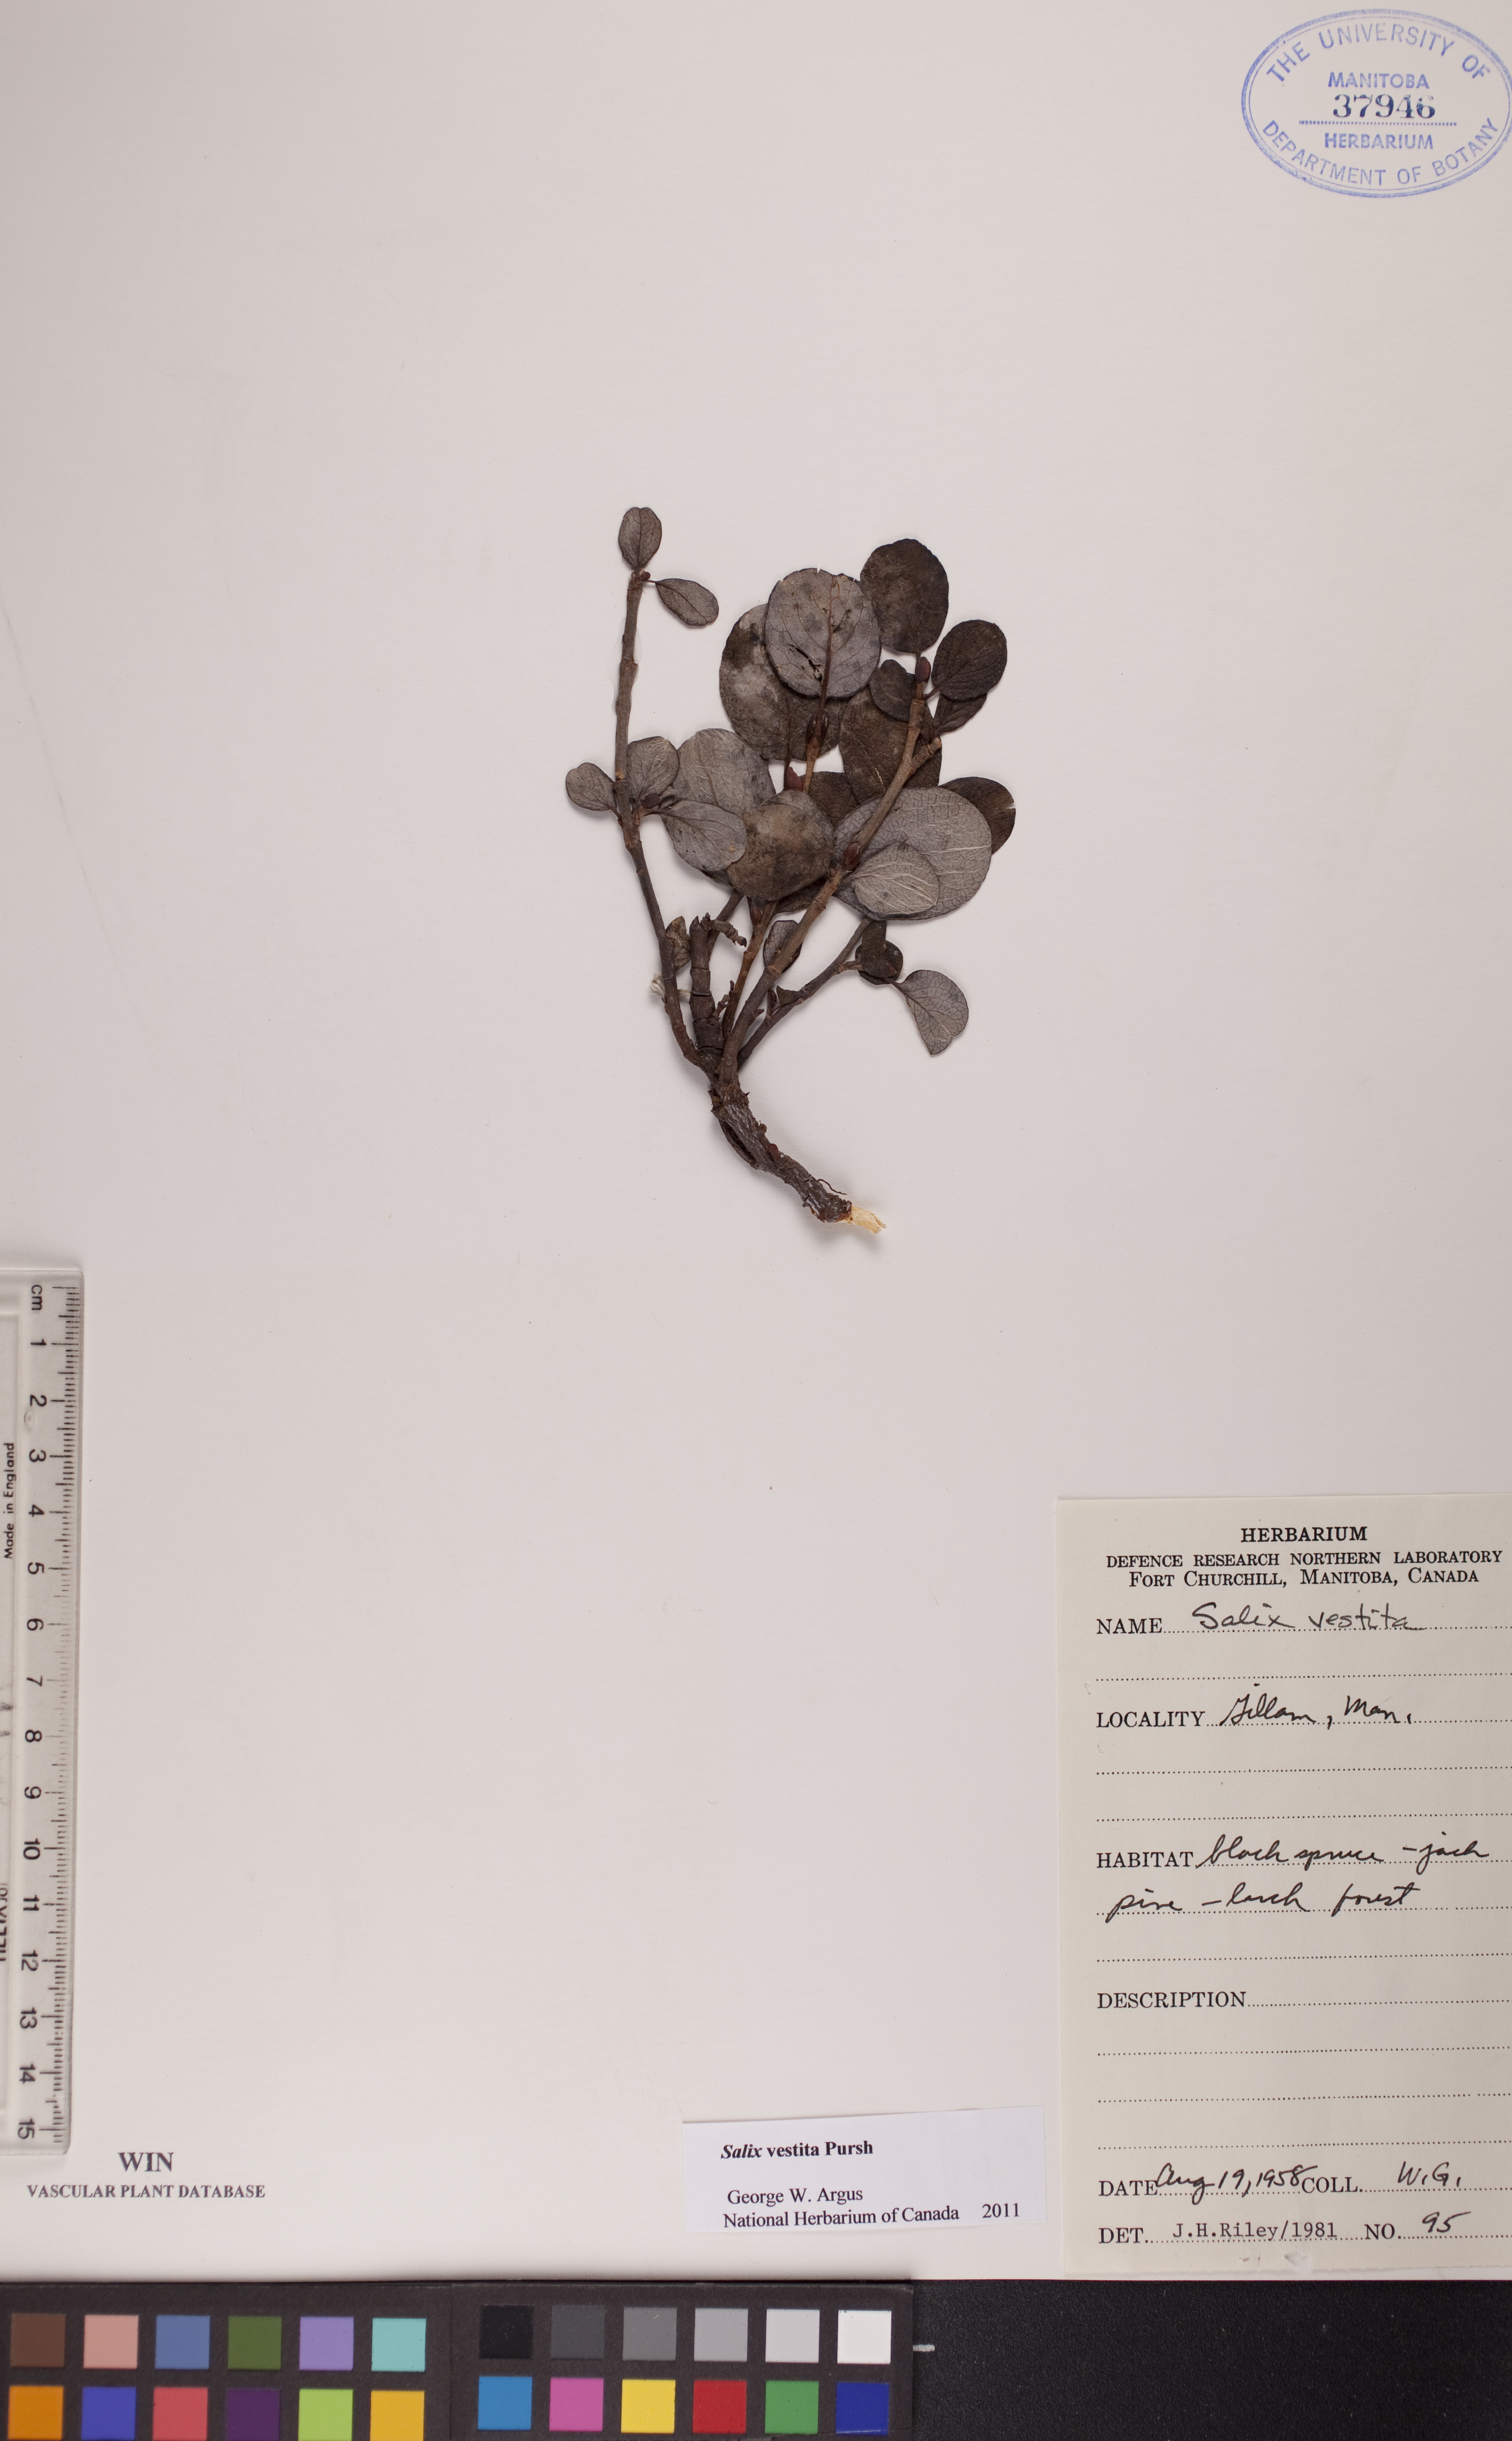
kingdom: Plantae
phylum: Tracheophyta
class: Magnoliopsida
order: Malpighiales
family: Salicaceae
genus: Salix
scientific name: Salix vestita
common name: Hairy willow
